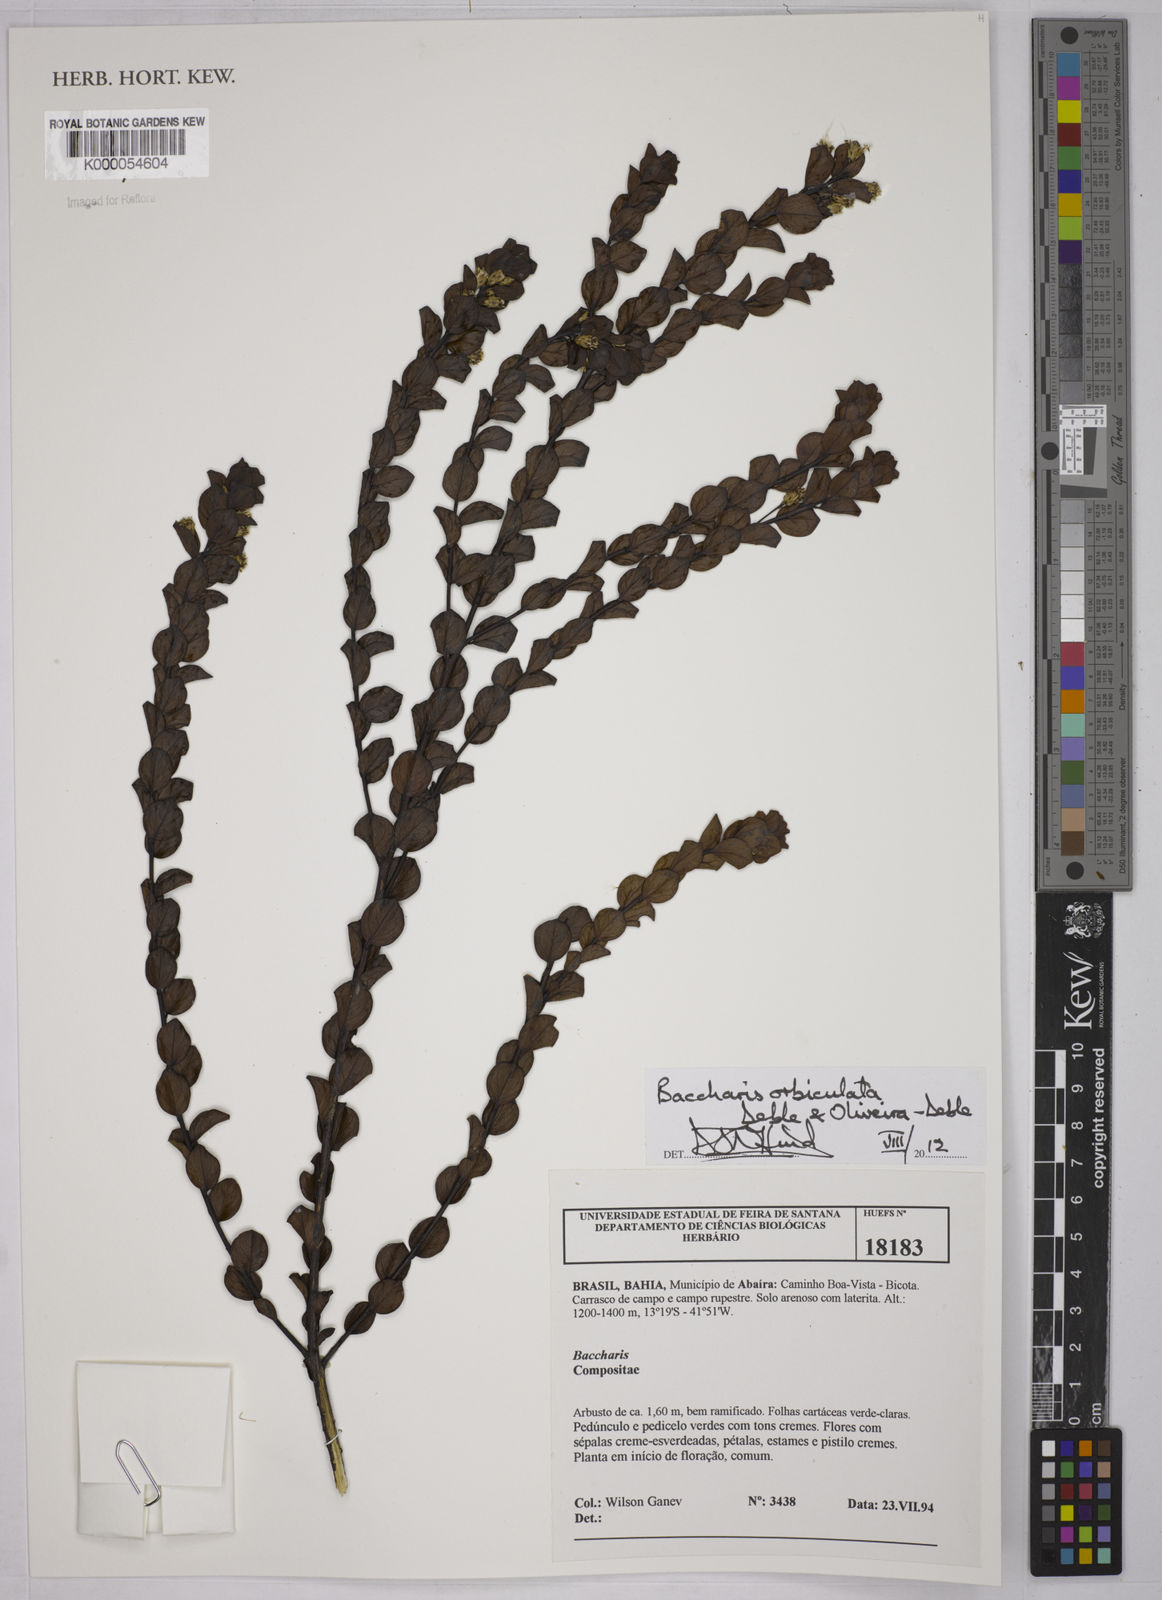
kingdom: Plantae
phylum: Tracheophyta
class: Magnoliopsida
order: Asterales
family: Asteraceae
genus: Baccharis
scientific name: Baccharis
